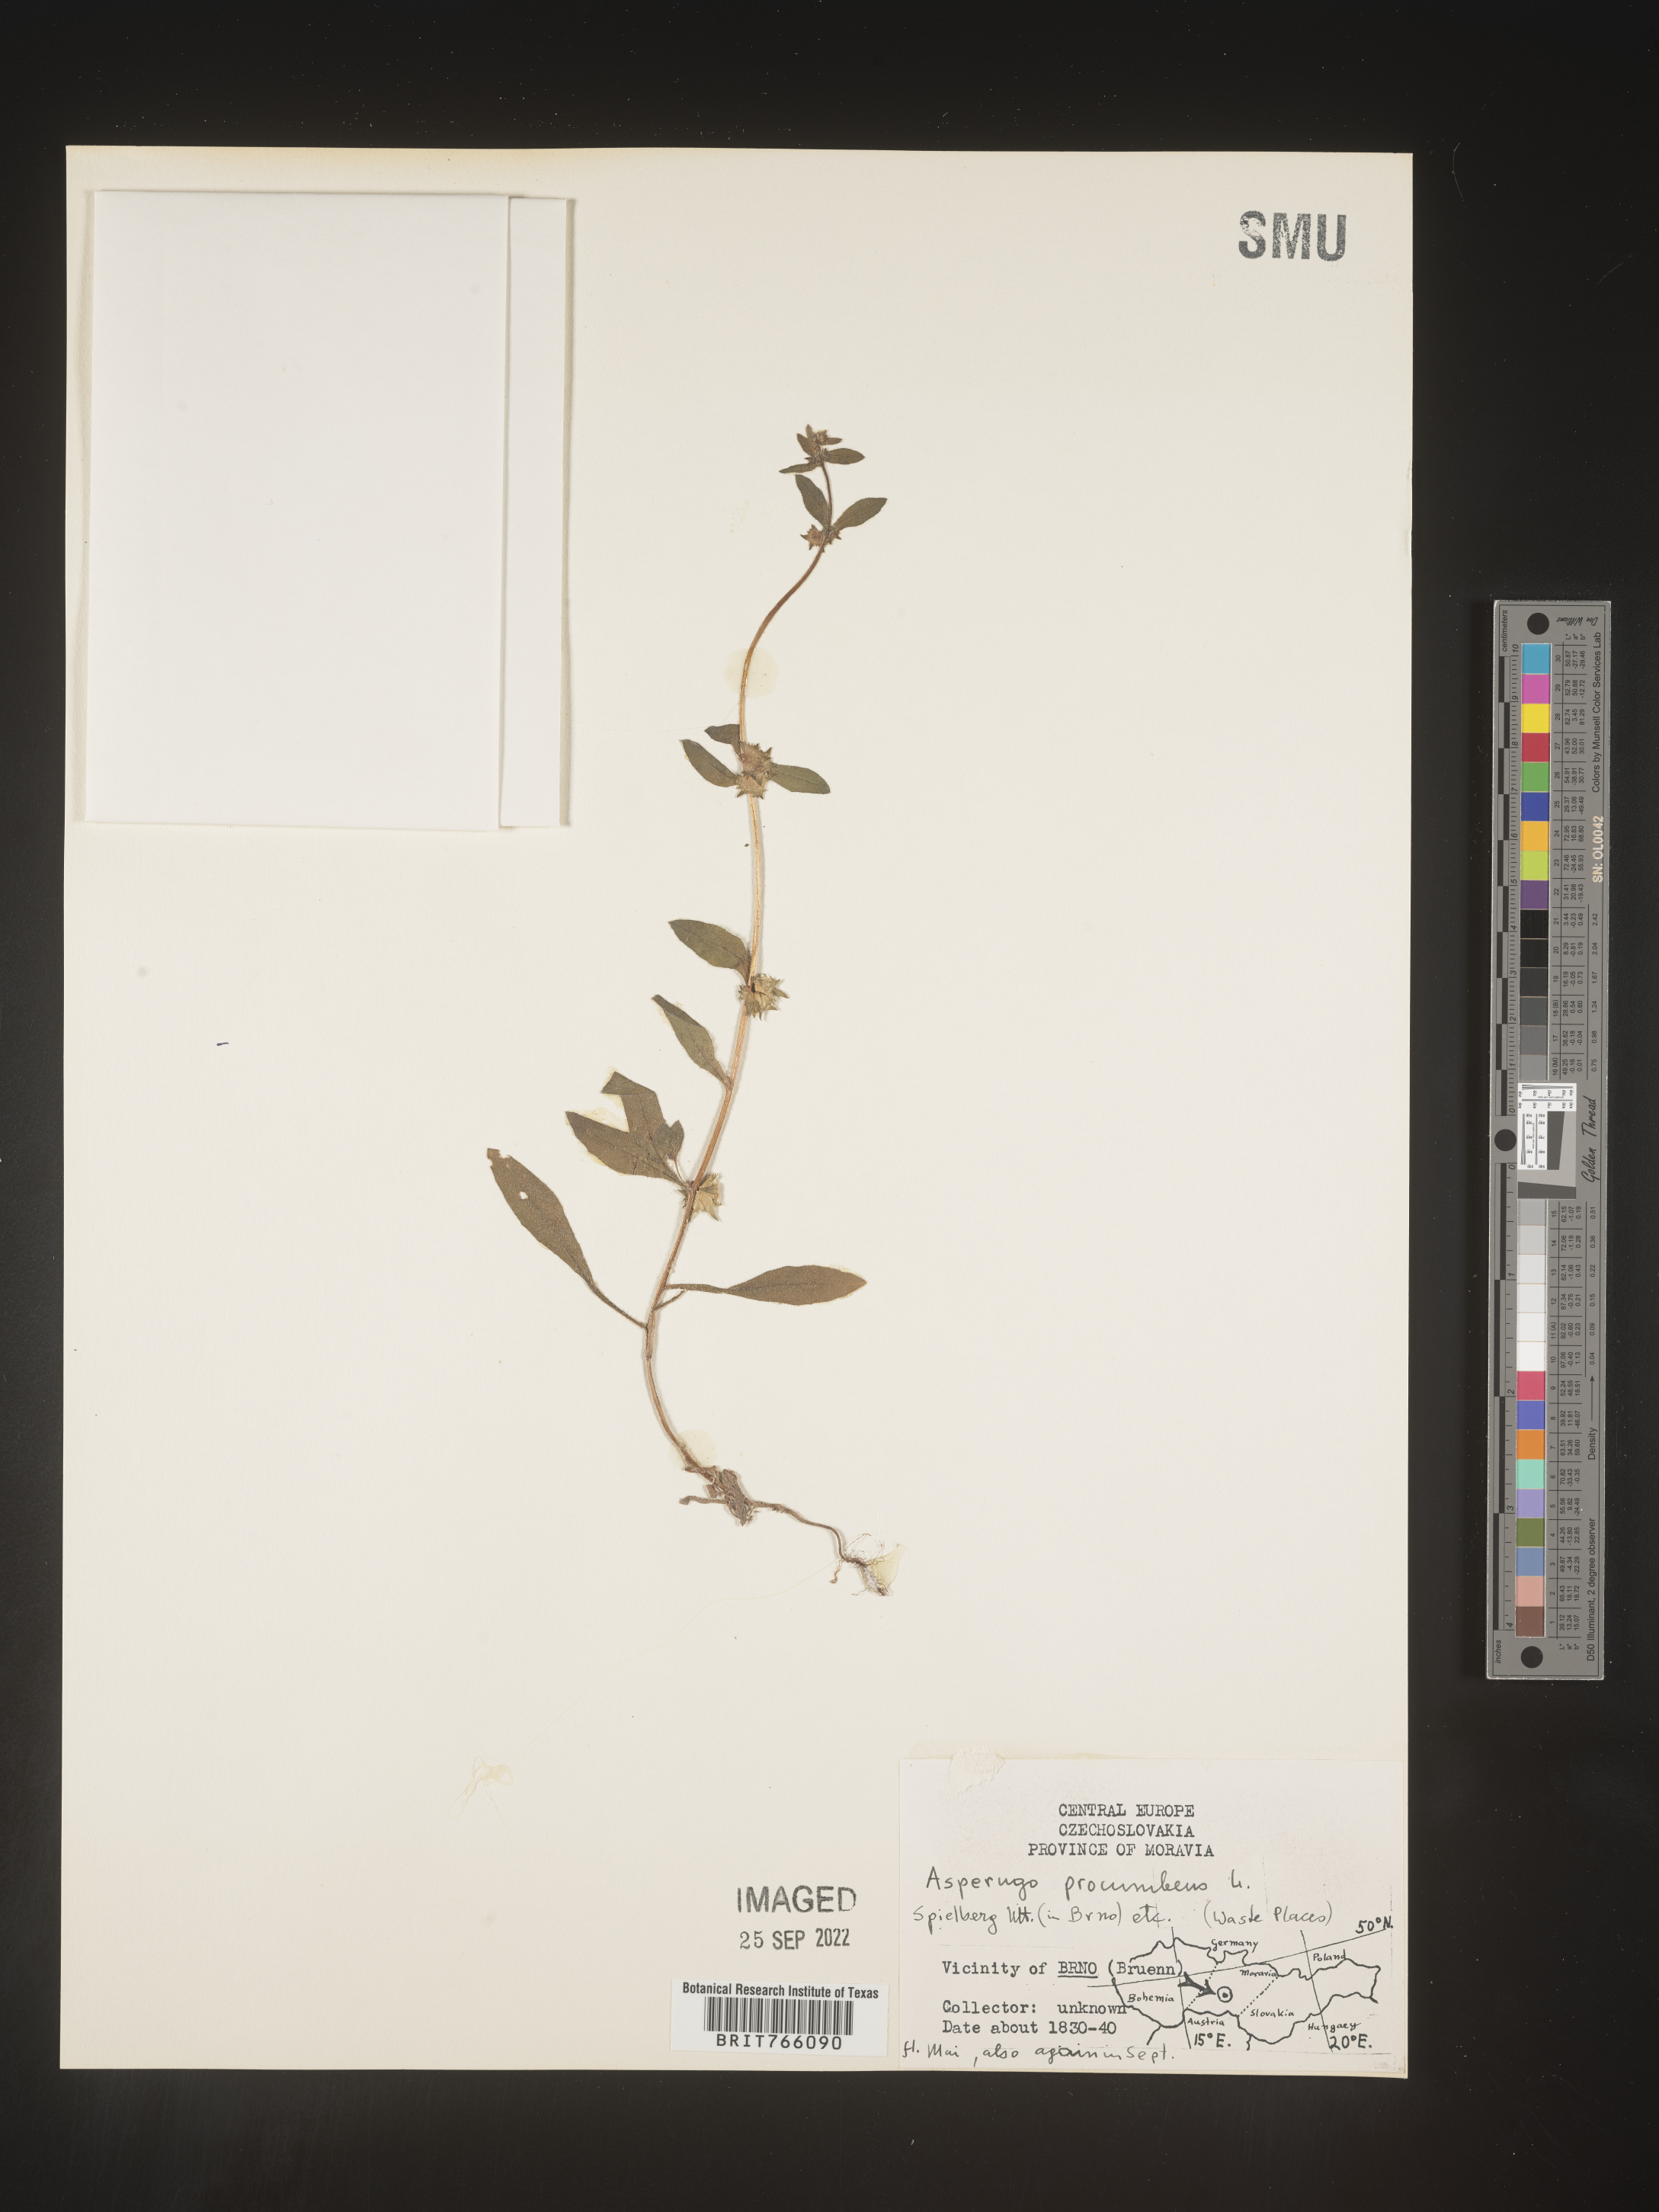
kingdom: Plantae
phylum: Tracheophyta
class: Magnoliopsida
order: Boraginales
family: Boraginaceae
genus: Asperugo
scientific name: Asperugo
